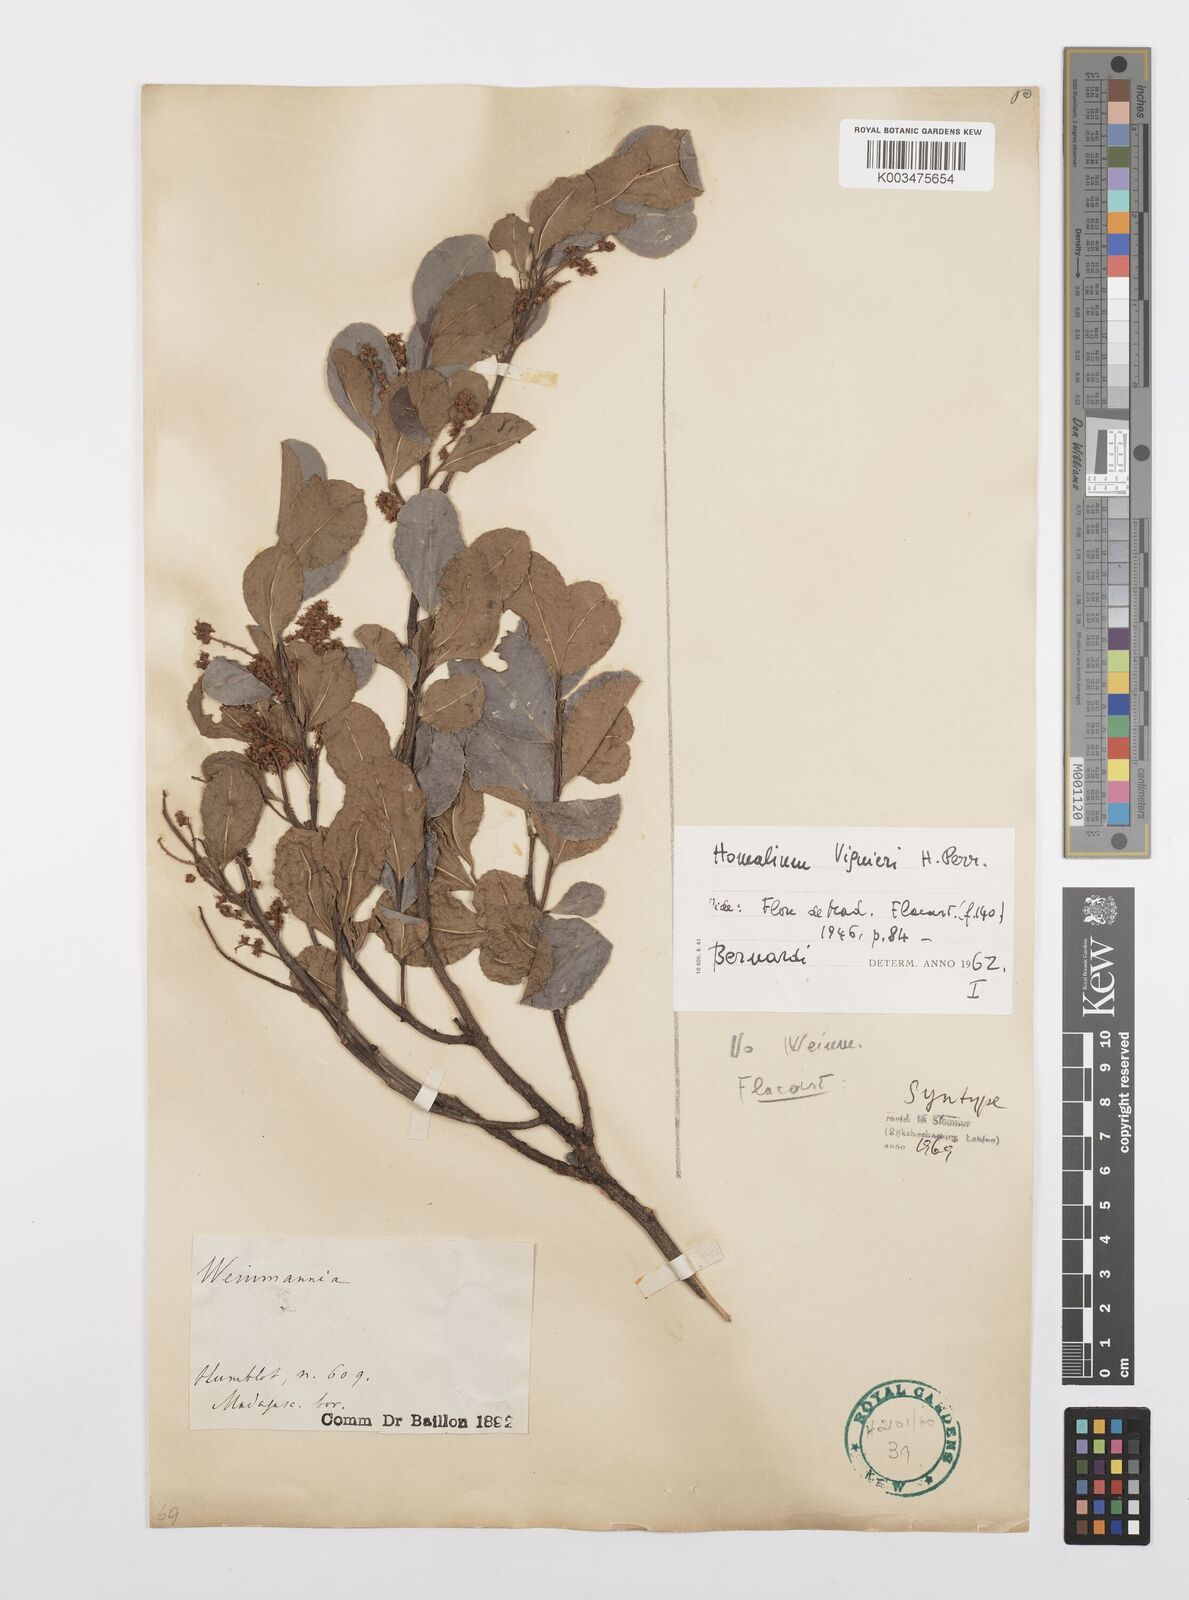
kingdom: Plantae
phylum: Tracheophyta
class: Magnoliopsida
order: Malpighiales
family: Salicaceae
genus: Homalium
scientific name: Homalium viguieri
